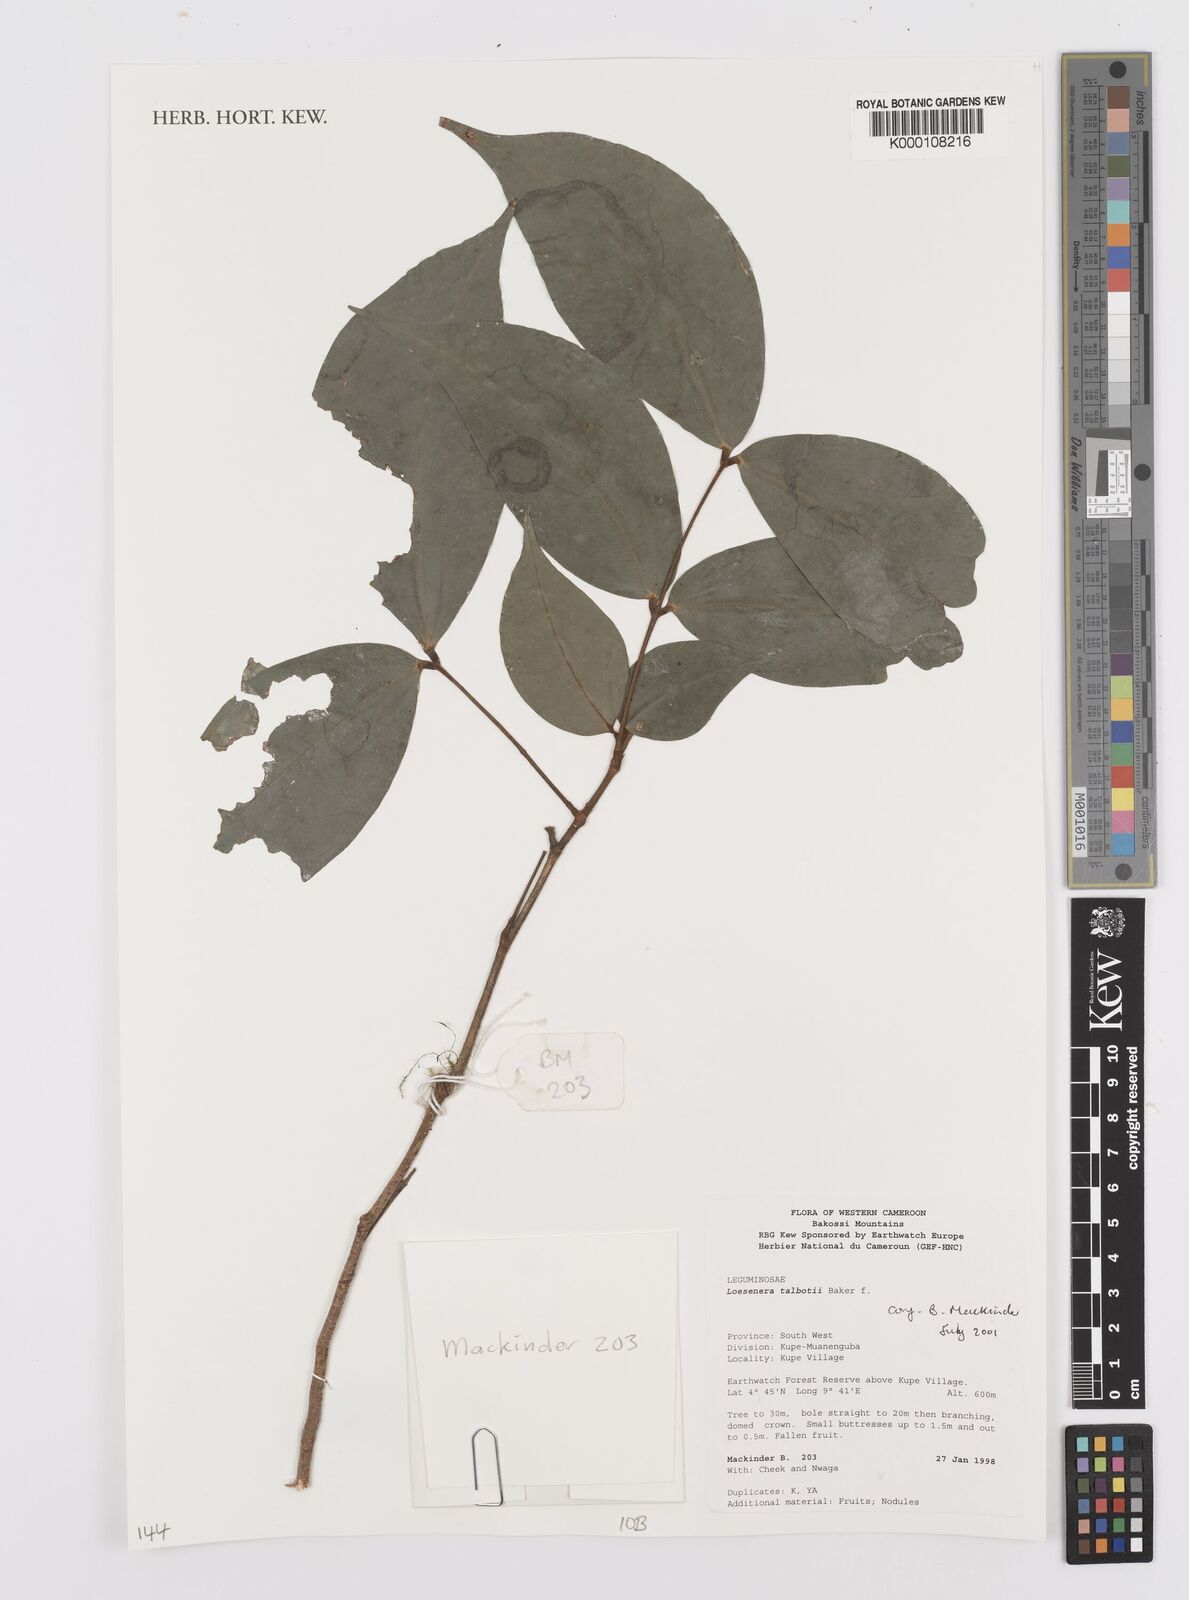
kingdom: Plantae
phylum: Tracheophyta
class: Magnoliopsida
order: Fabales
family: Fabaceae
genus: Loesenera
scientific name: Loesenera talbotii
